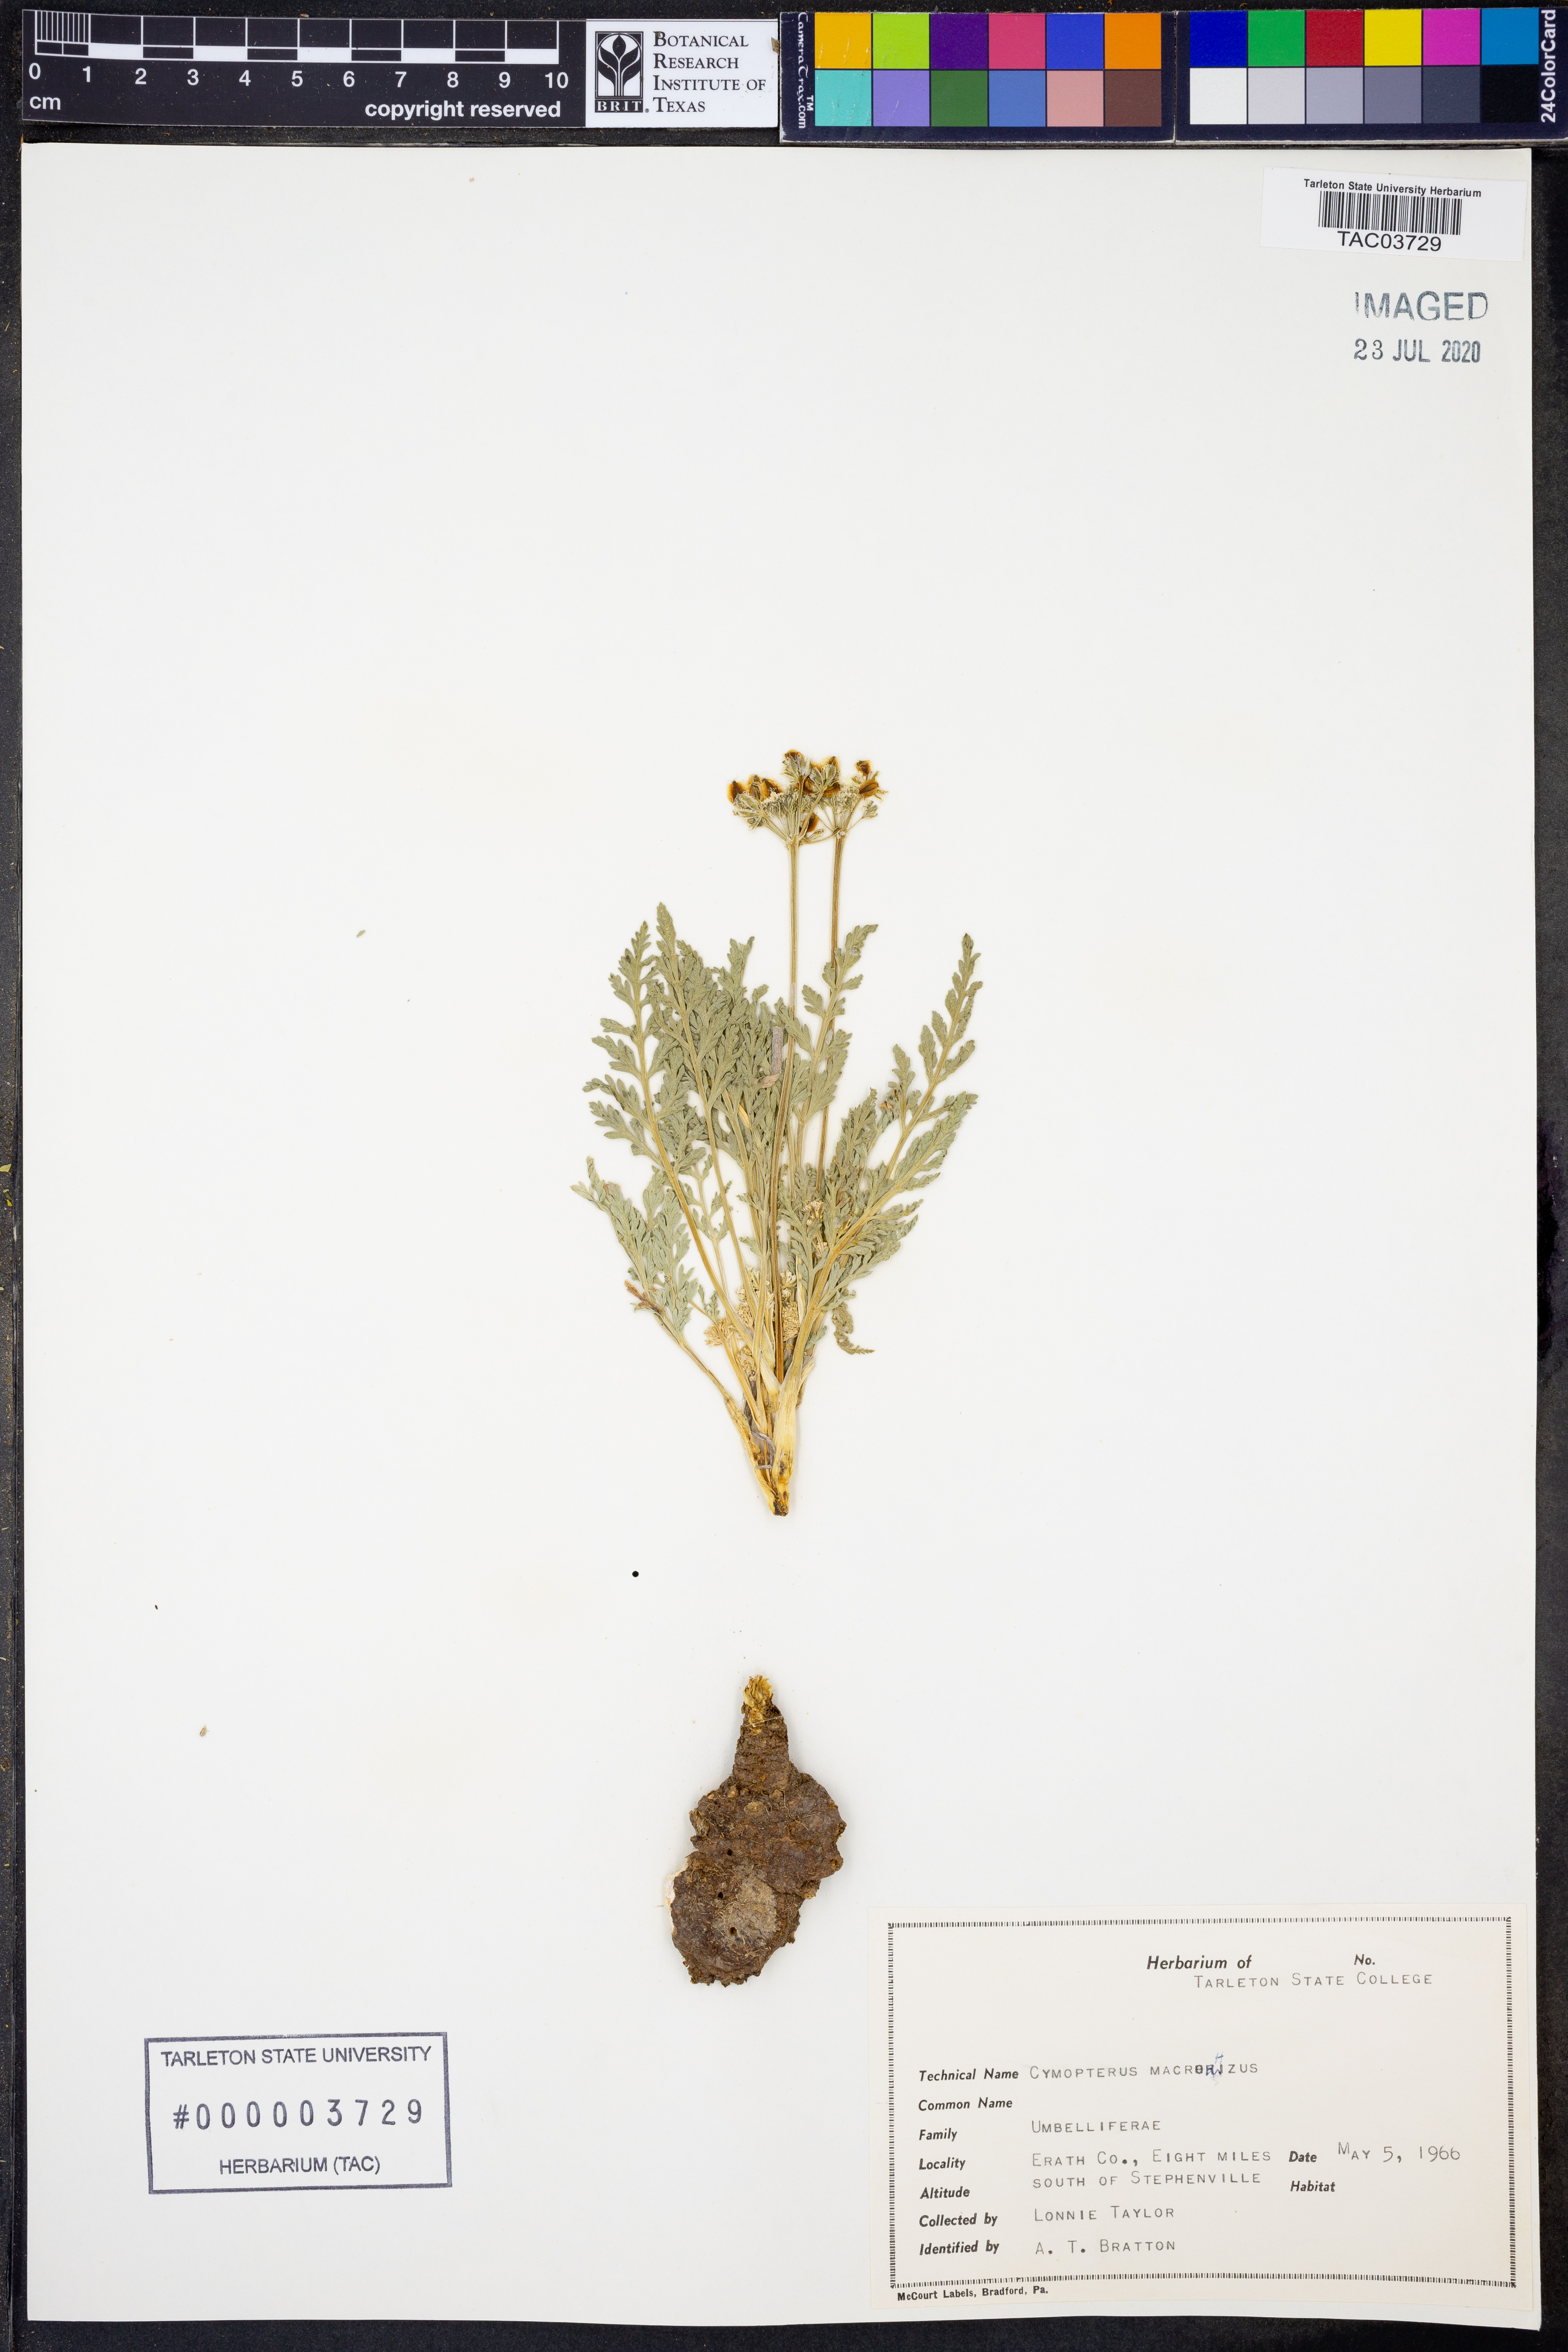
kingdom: Plantae
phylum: Tracheophyta
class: Magnoliopsida
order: Apiales
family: Apiaceae
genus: Vesper
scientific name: Vesper macrorhizus
